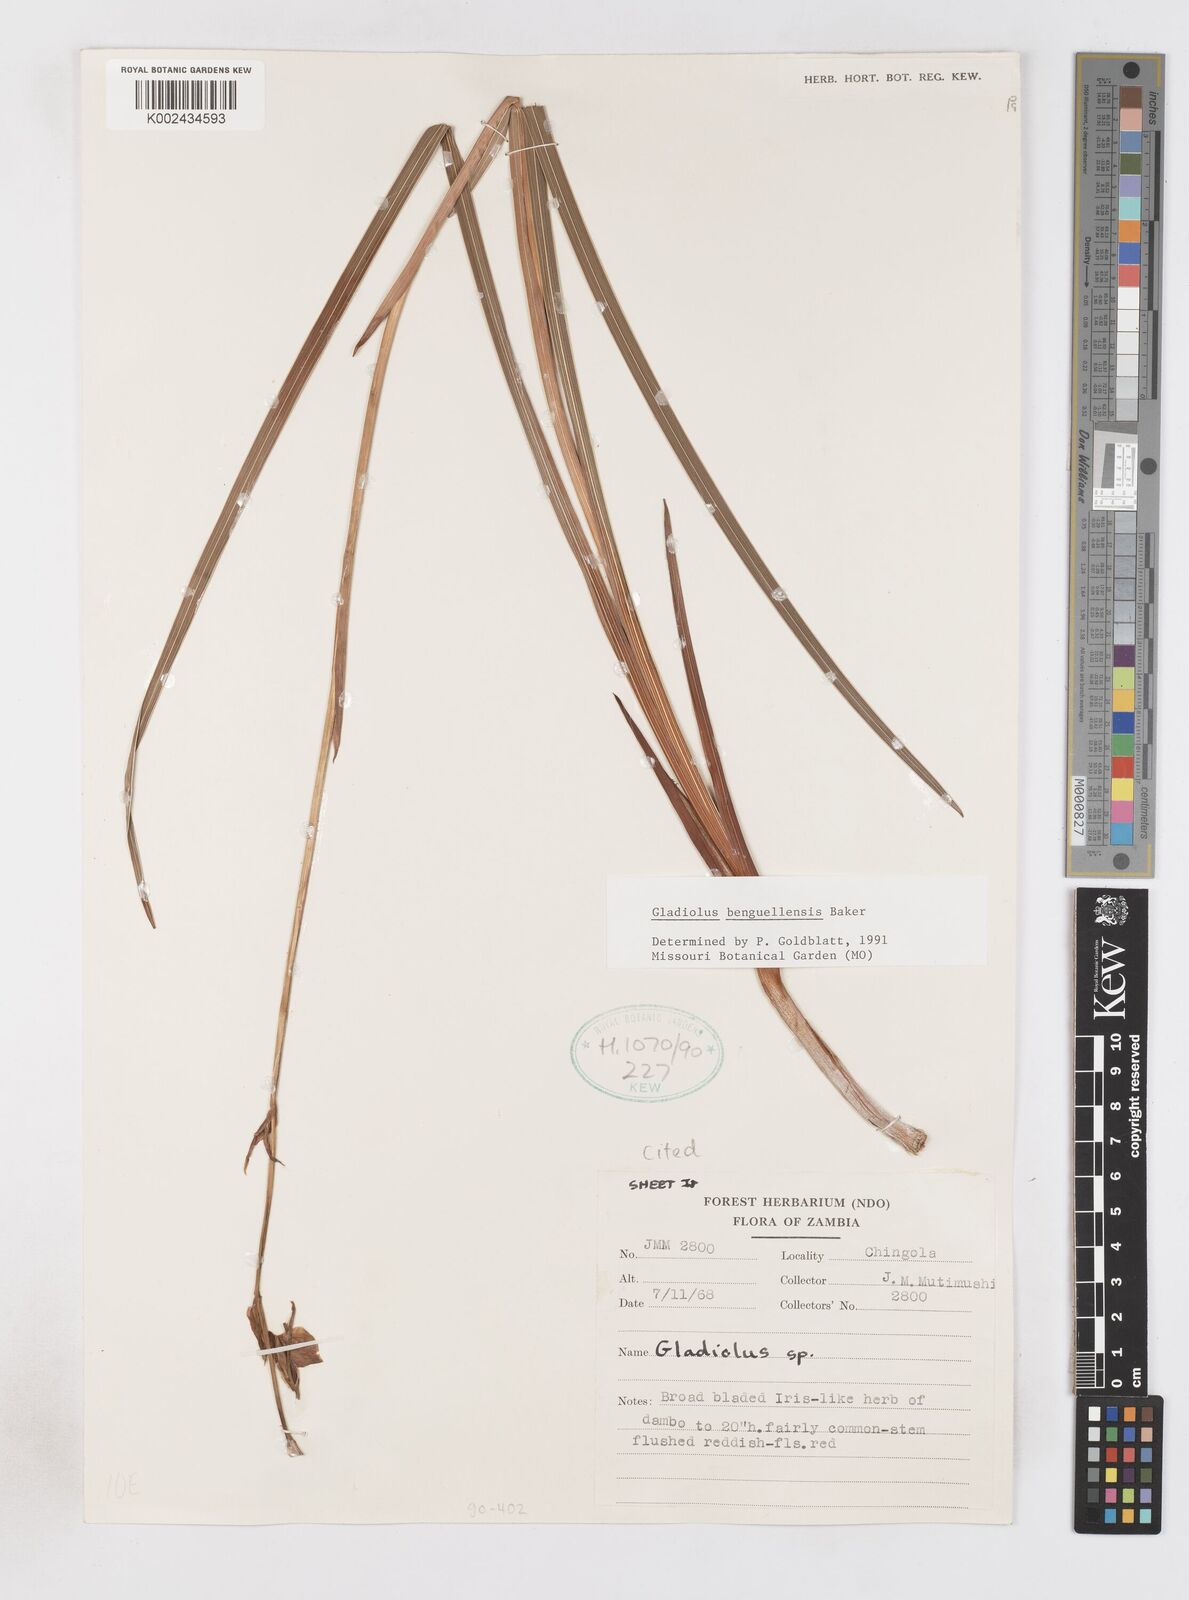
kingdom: Plantae
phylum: Tracheophyta
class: Liliopsida
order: Asparagales
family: Iridaceae
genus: Gladiolus
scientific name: Gladiolus benguellensis
